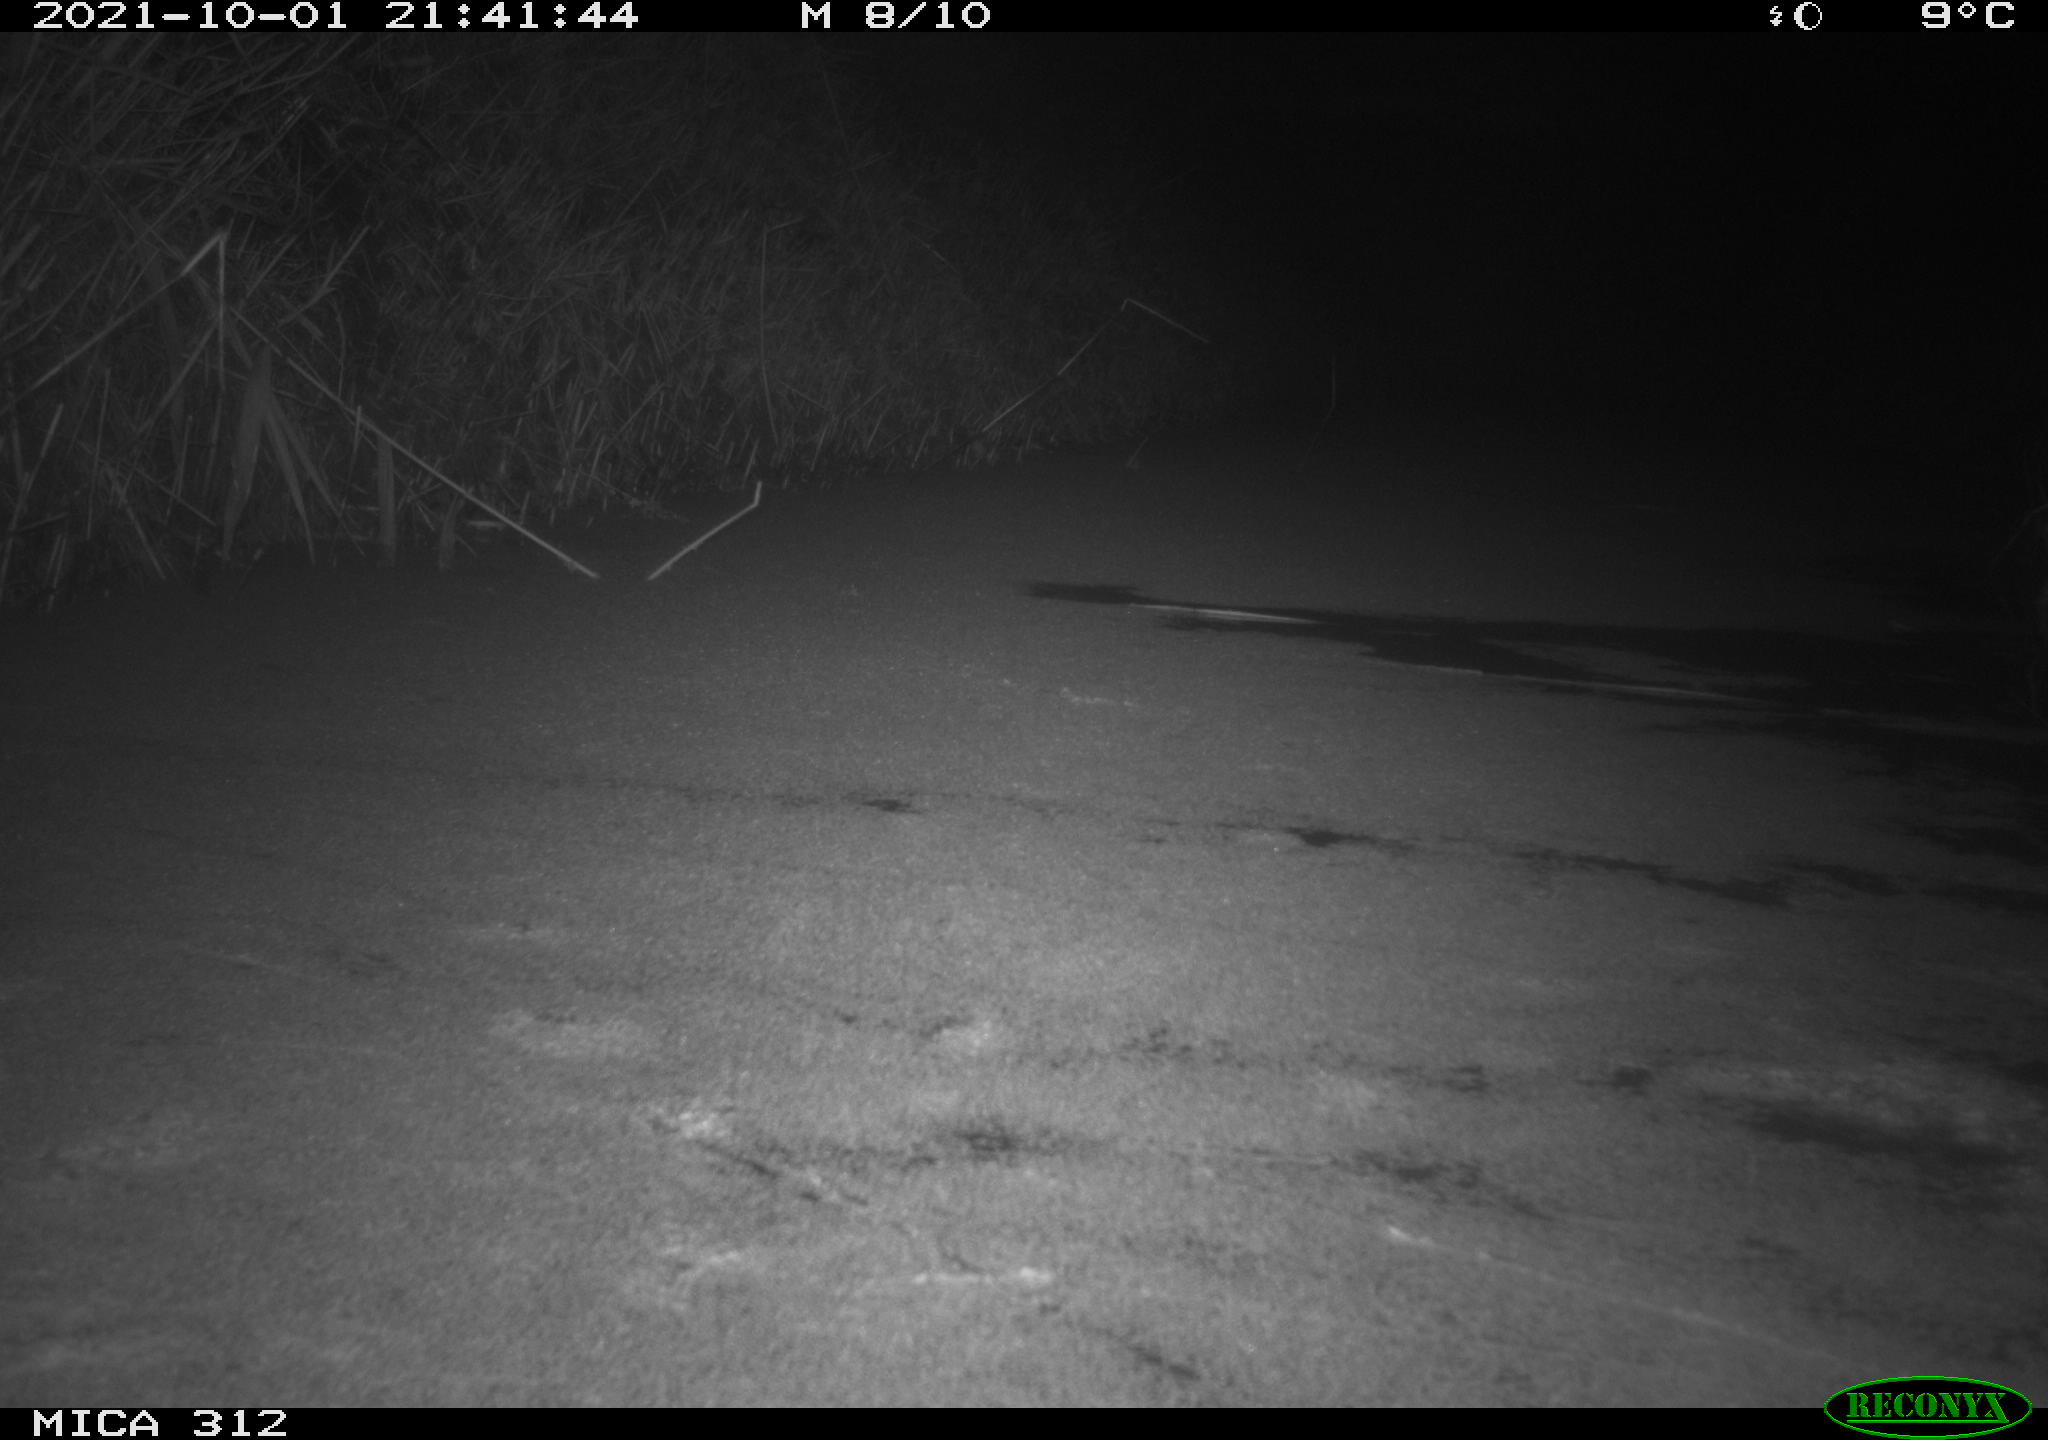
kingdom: Animalia
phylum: Chordata
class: Mammalia
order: Rodentia
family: Muridae
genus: Rattus
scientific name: Rattus norvegicus
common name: Brown rat
